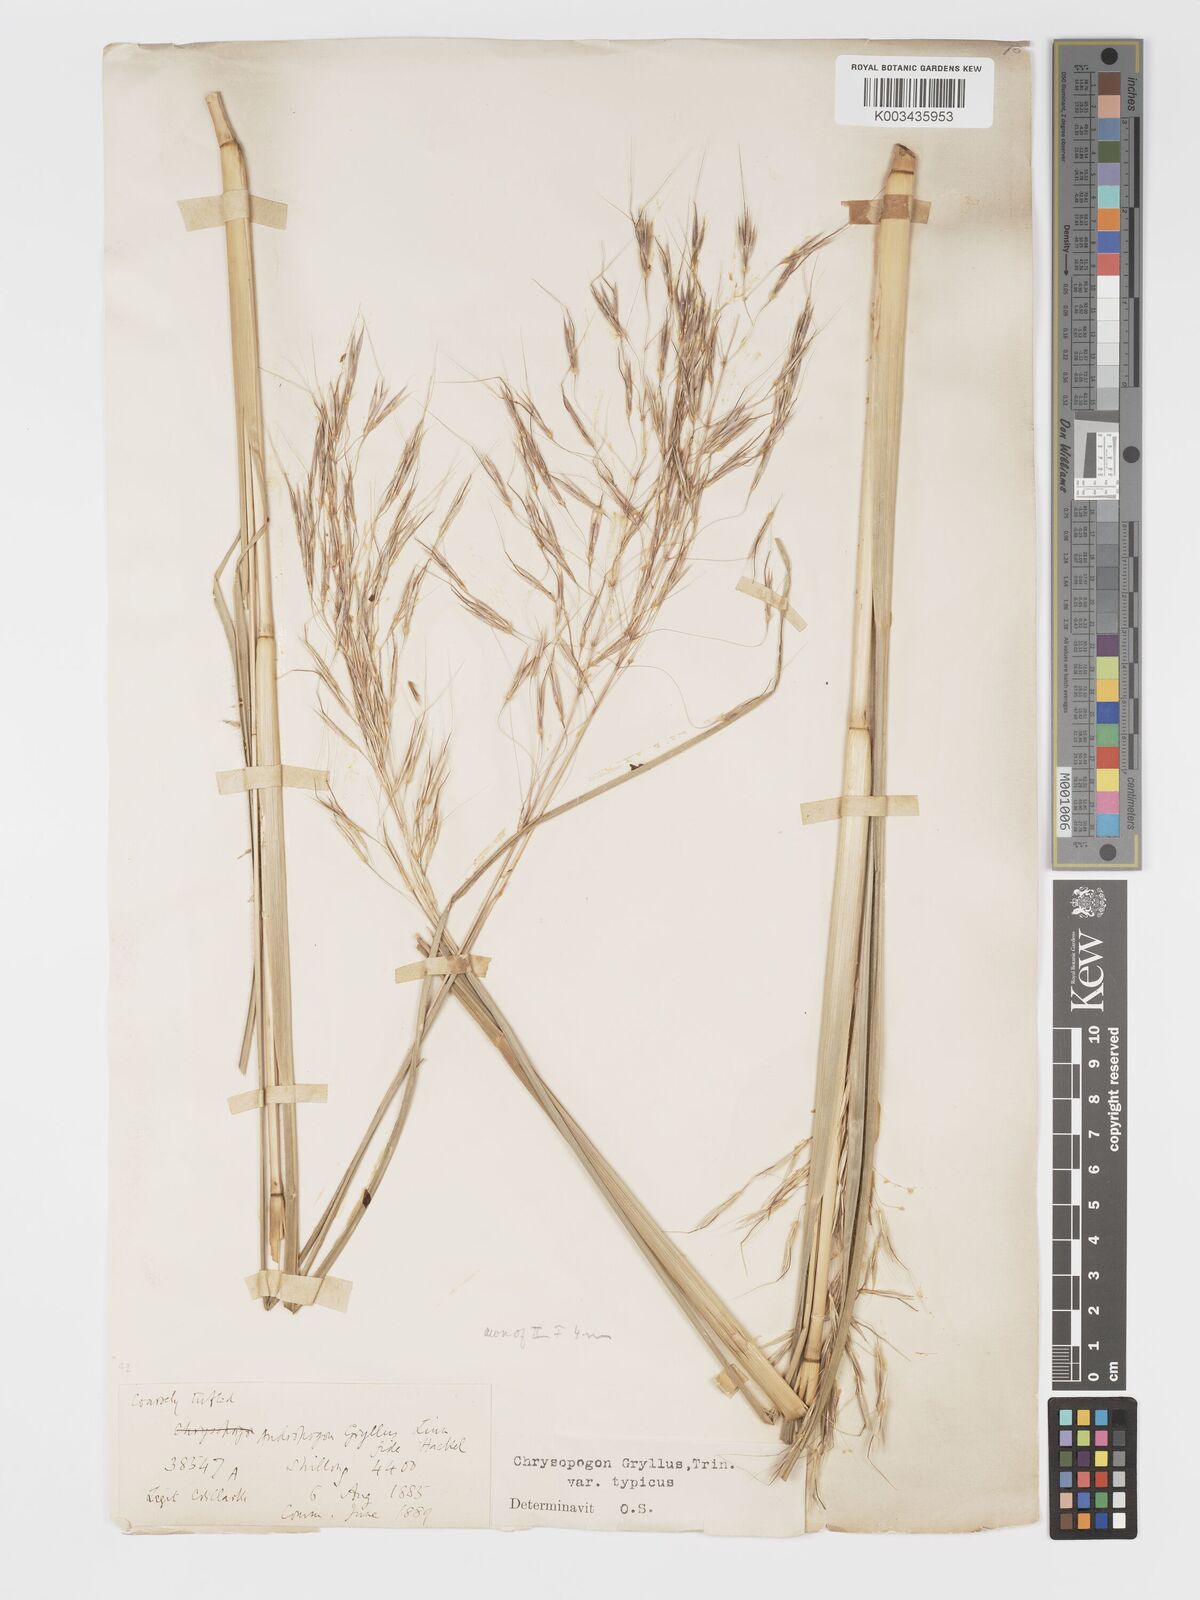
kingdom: Plantae
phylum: Tracheophyta
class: Liliopsida
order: Poales
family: Poaceae
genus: Chrysopogon
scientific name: Chrysopogon gryllus
